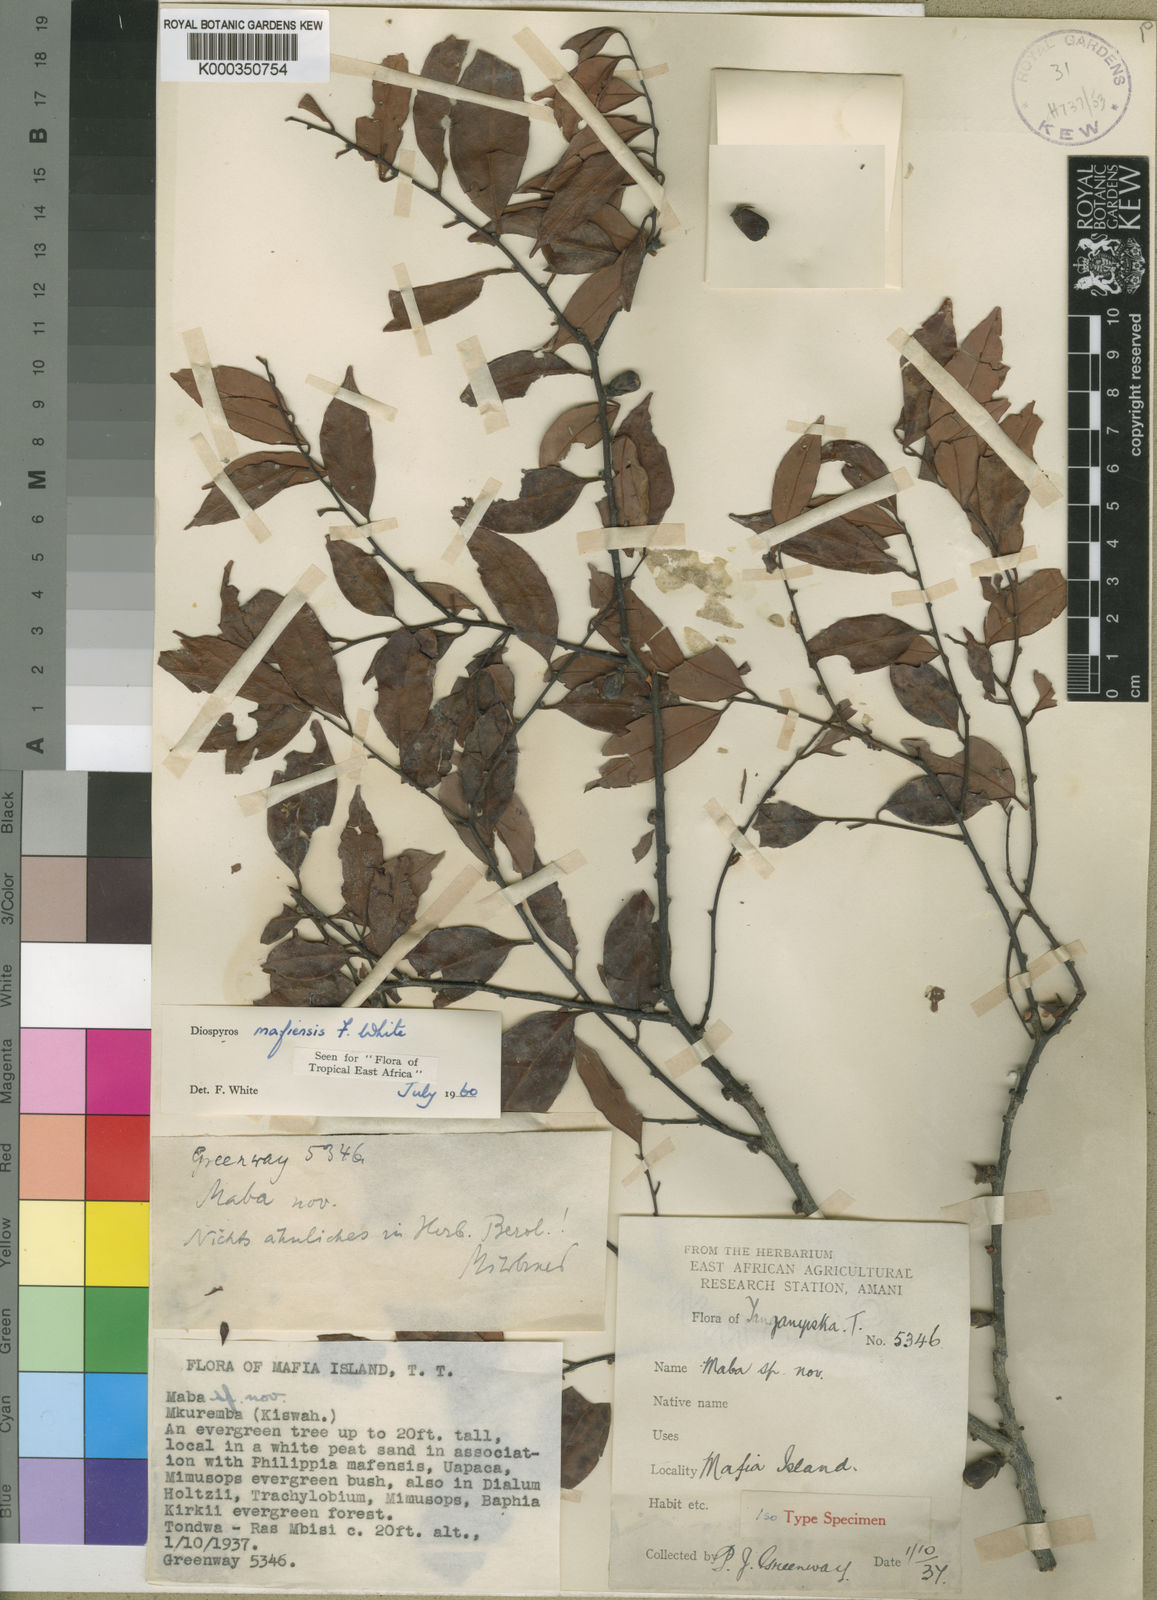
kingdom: Plantae
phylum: Tracheophyta
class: Magnoliopsida
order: Ericales
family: Ebenaceae
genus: Diospyros
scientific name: Diospyros mafiensis
